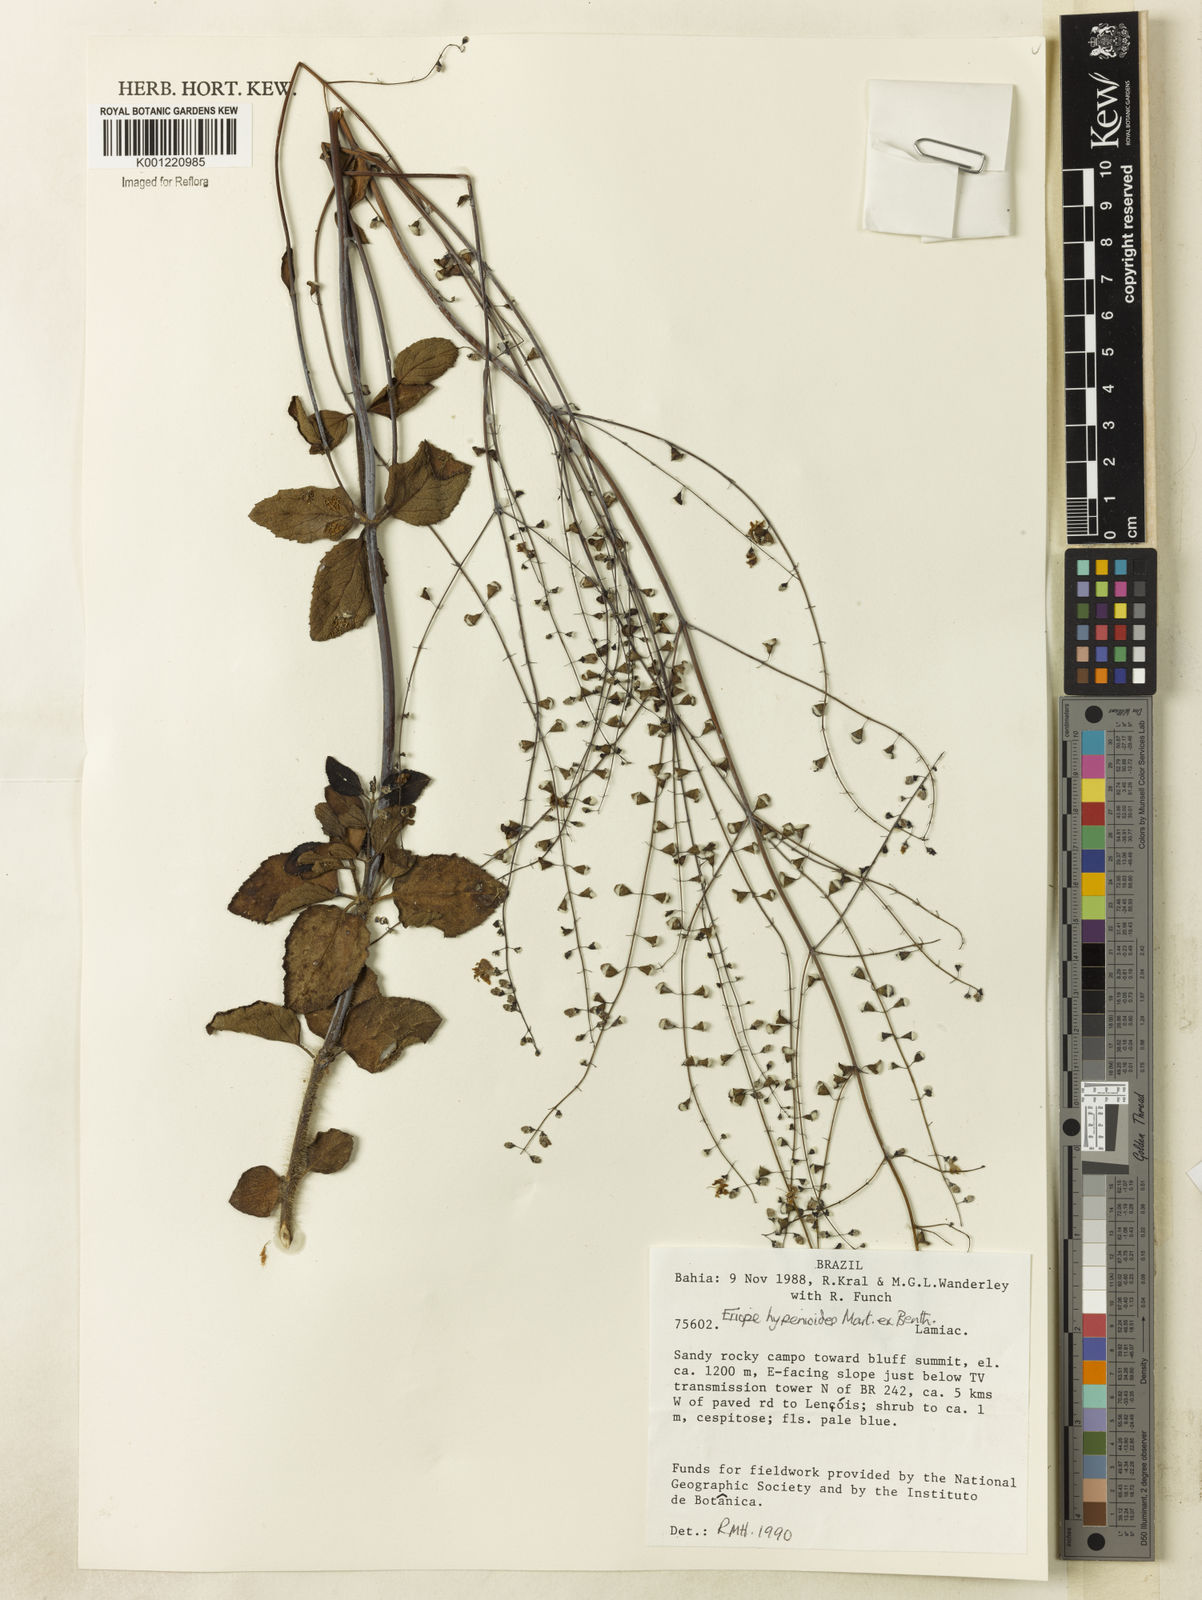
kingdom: Plantae
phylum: Tracheophyta
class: Magnoliopsida
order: Lamiales
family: Lamiaceae
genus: Eriope
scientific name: Eriope hypenioides
